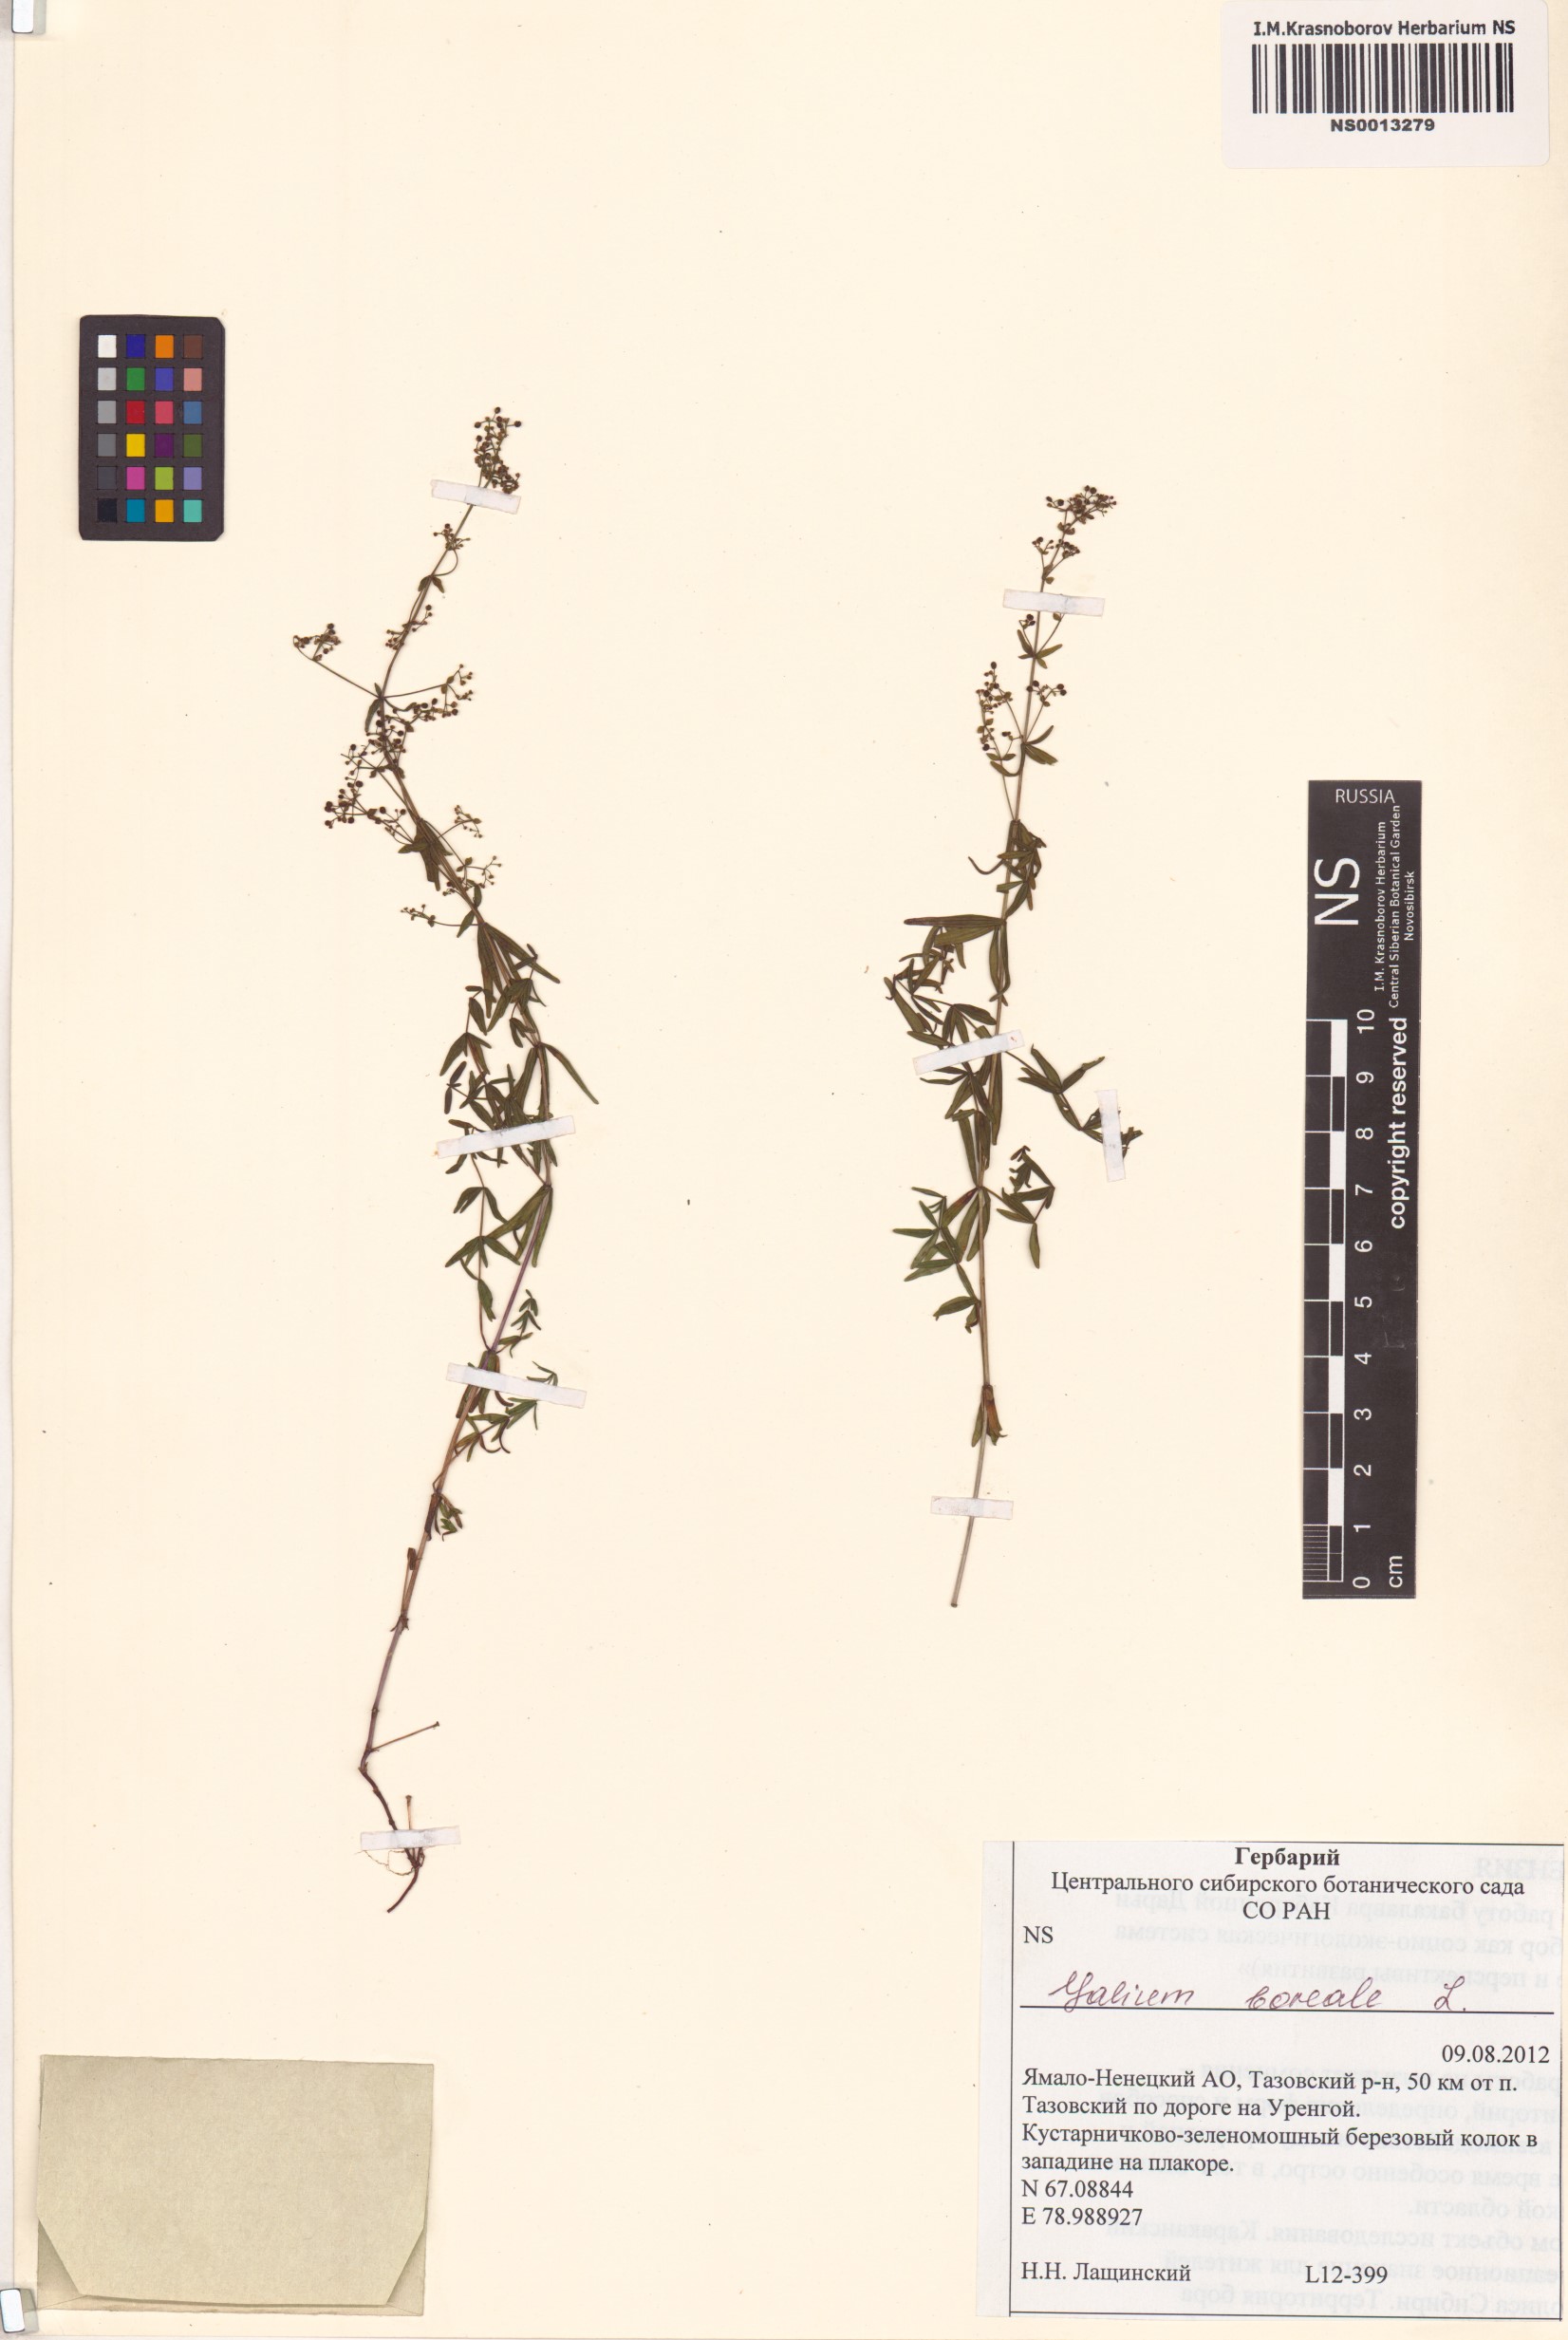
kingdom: Plantae
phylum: Tracheophyta
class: Magnoliopsida
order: Gentianales
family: Rubiaceae
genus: Galium
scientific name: Galium boreale
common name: Northern bedstraw
